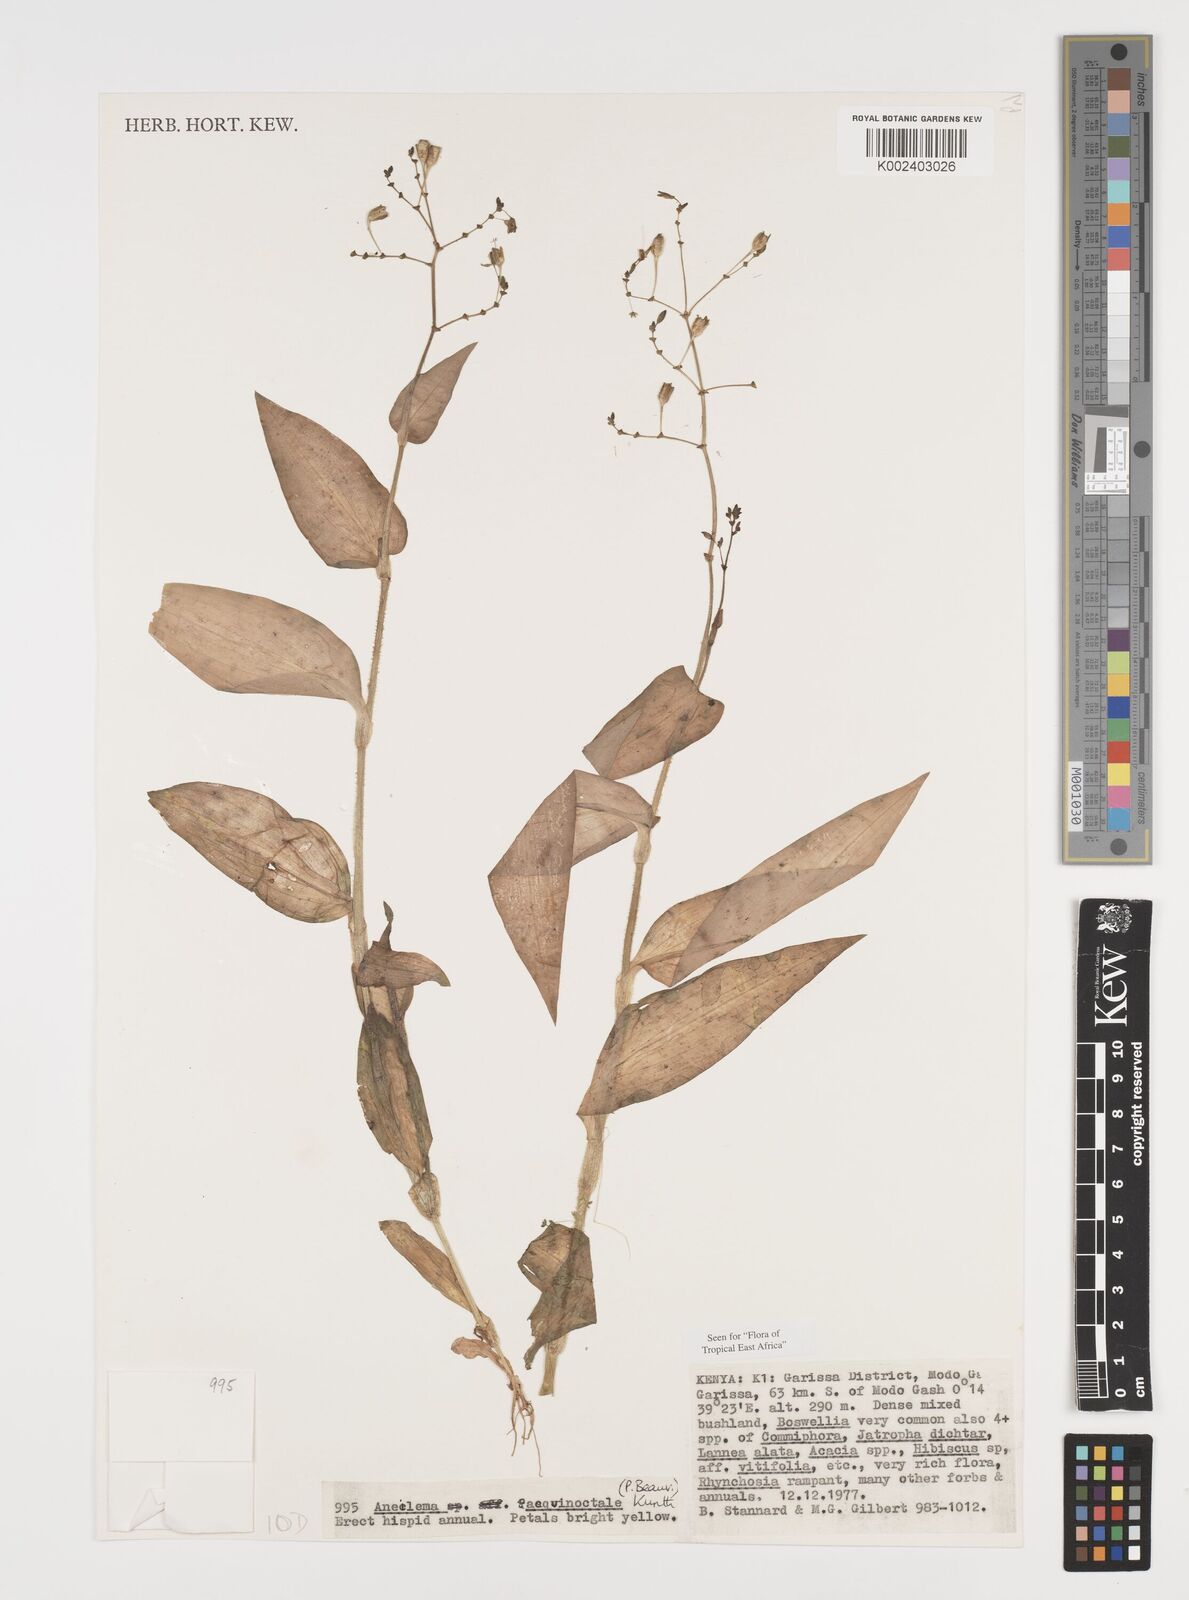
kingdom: Plantae
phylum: Tracheophyta
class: Liliopsida
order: Commelinales
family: Commelinaceae
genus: Aneilema
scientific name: Aneilema aequinoctiale
